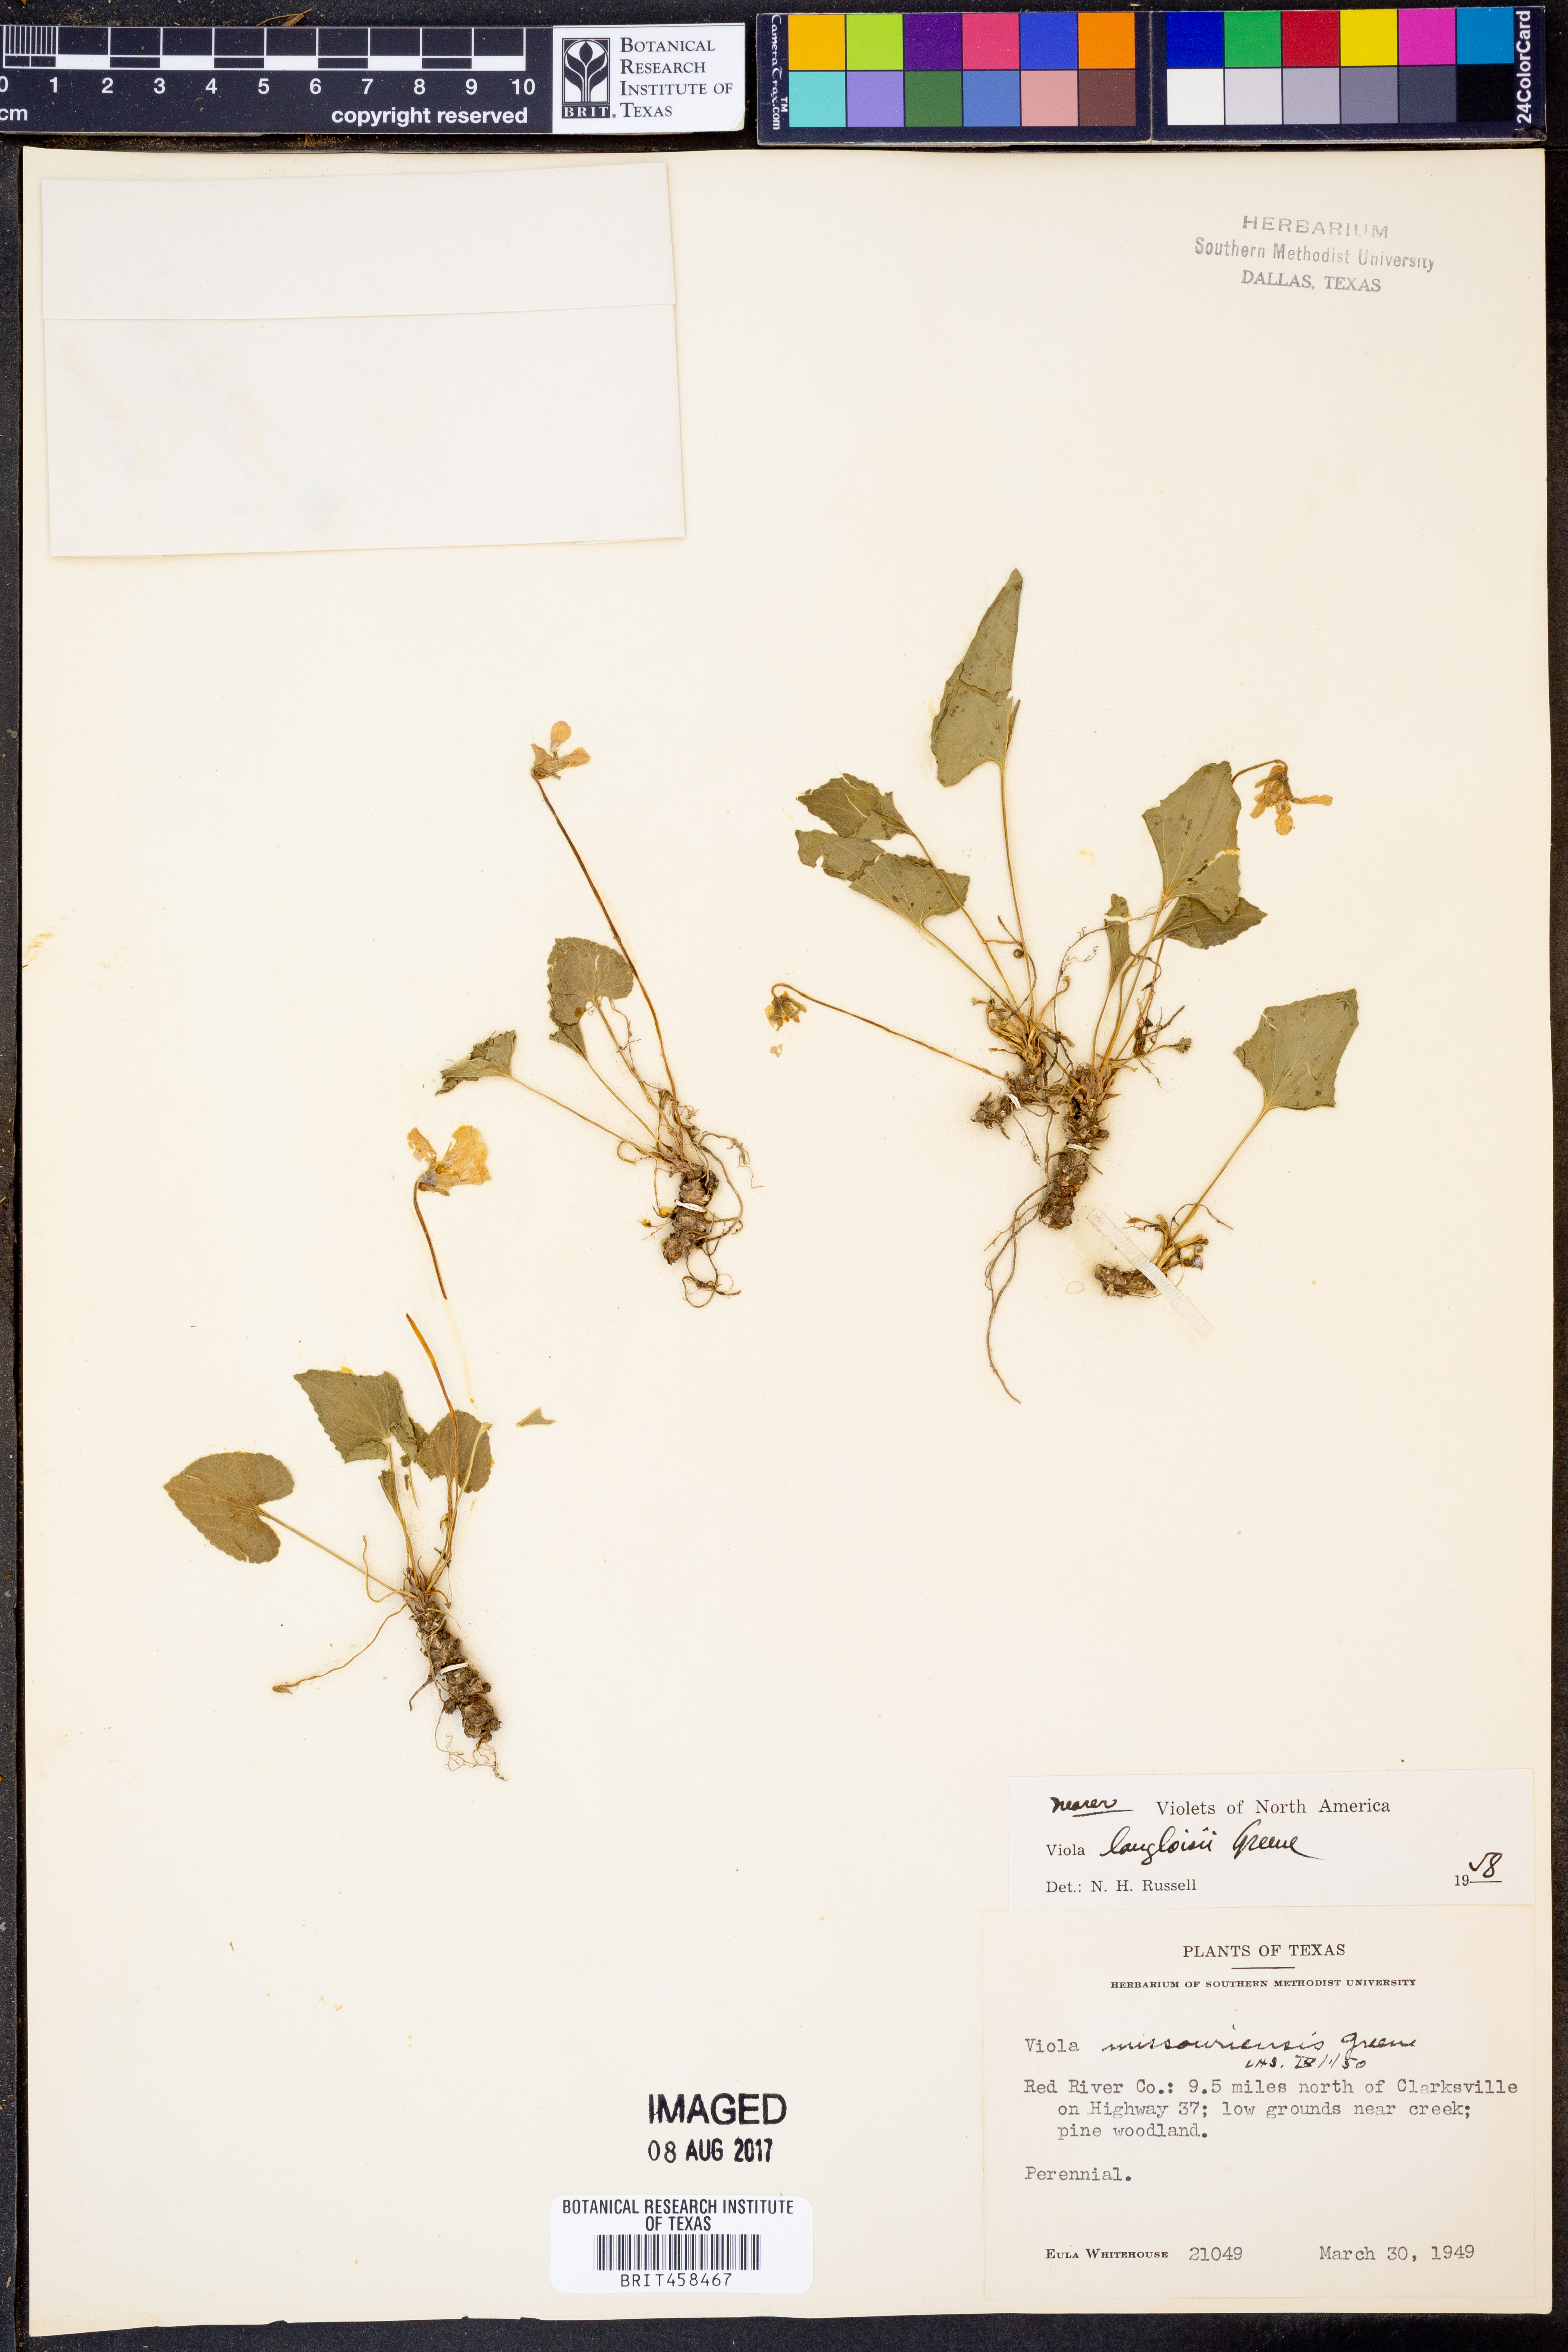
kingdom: Plantae
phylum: Tracheophyta
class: Magnoliopsida
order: Malpighiales
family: Violaceae
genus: Viola
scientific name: Viola missouriensis
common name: Missouri violet
